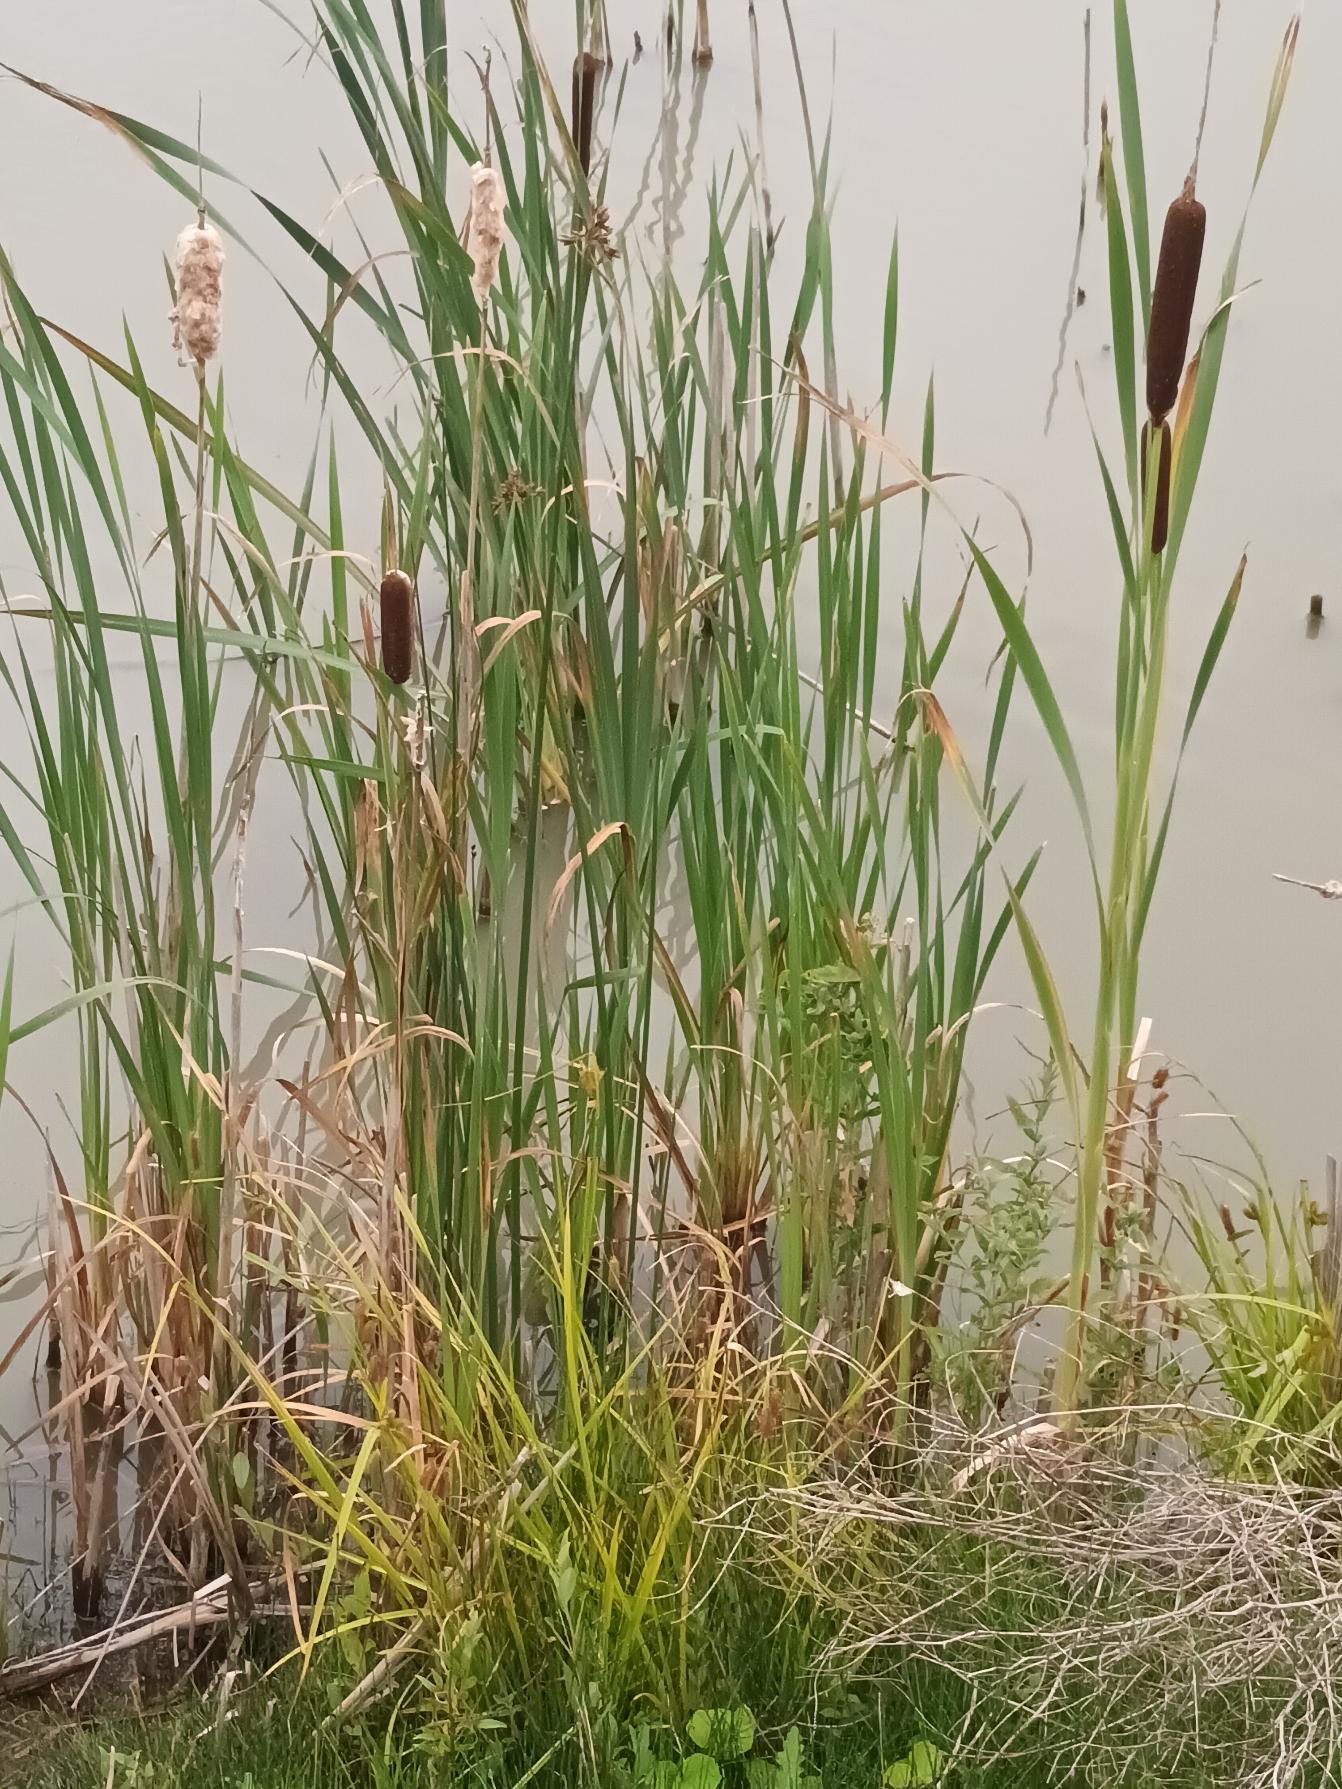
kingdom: Plantae
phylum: Tracheophyta
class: Liliopsida
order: Poales
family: Typhaceae
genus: Typha
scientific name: Typha latifolia
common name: Bredbladet dunhammer
